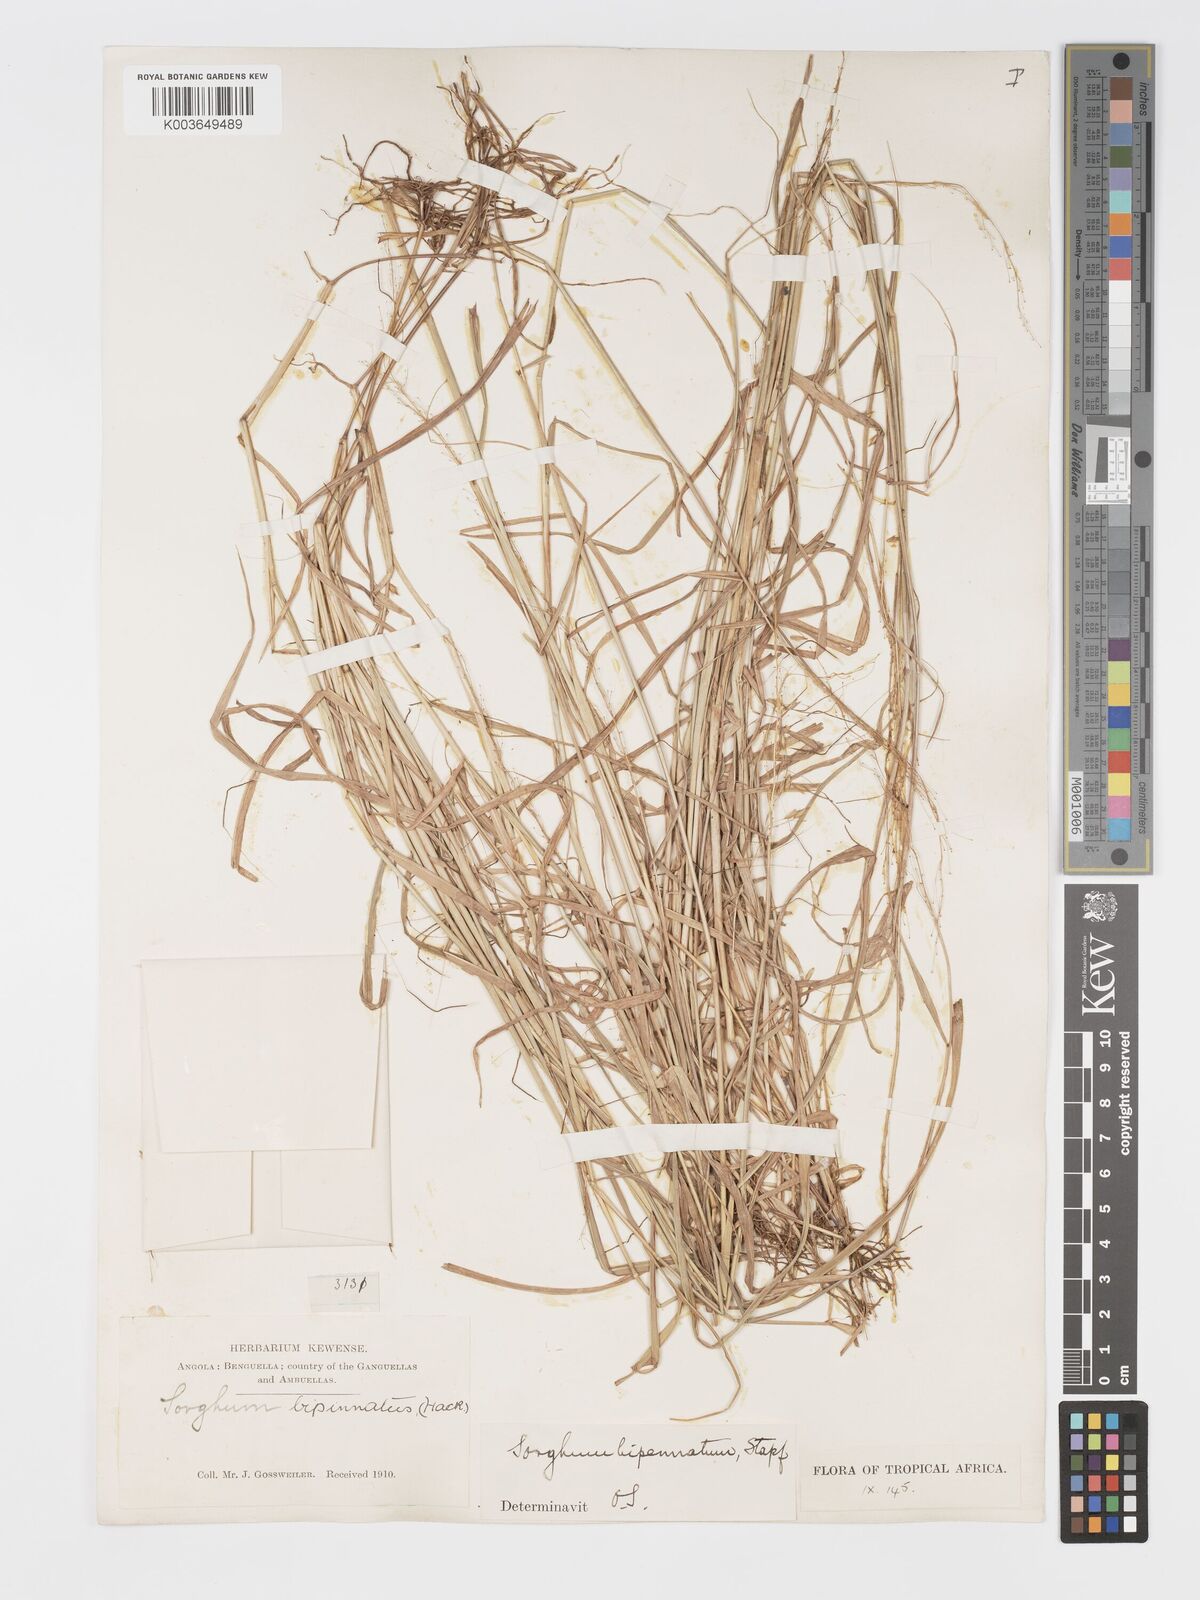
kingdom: Plantae
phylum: Tracheophyta
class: Liliopsida
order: Poales
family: Poaceae
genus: Sorghastrum
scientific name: Sorghastrum incompletum
